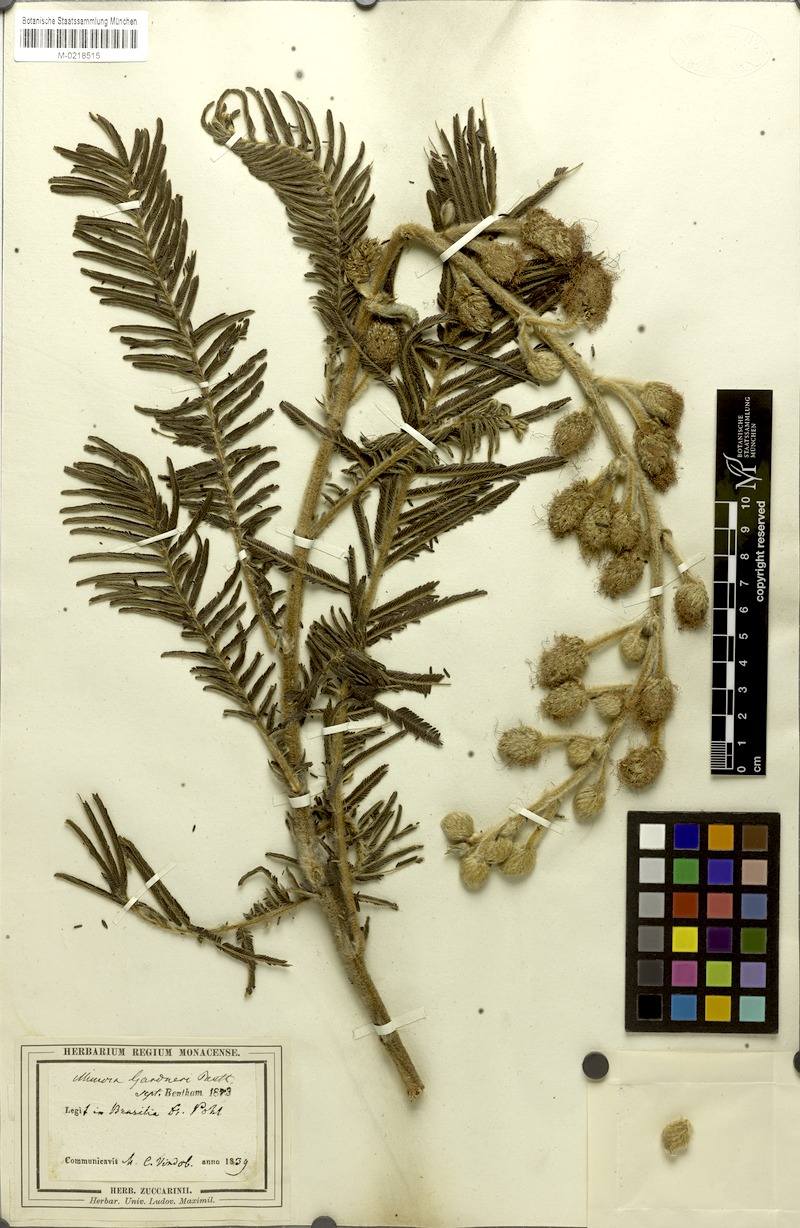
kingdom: Plantae
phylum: Tracheophyta
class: Magnoliopsida
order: Fabales
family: Fabaceae
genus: Mimosa
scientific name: Mimosa albolanata
